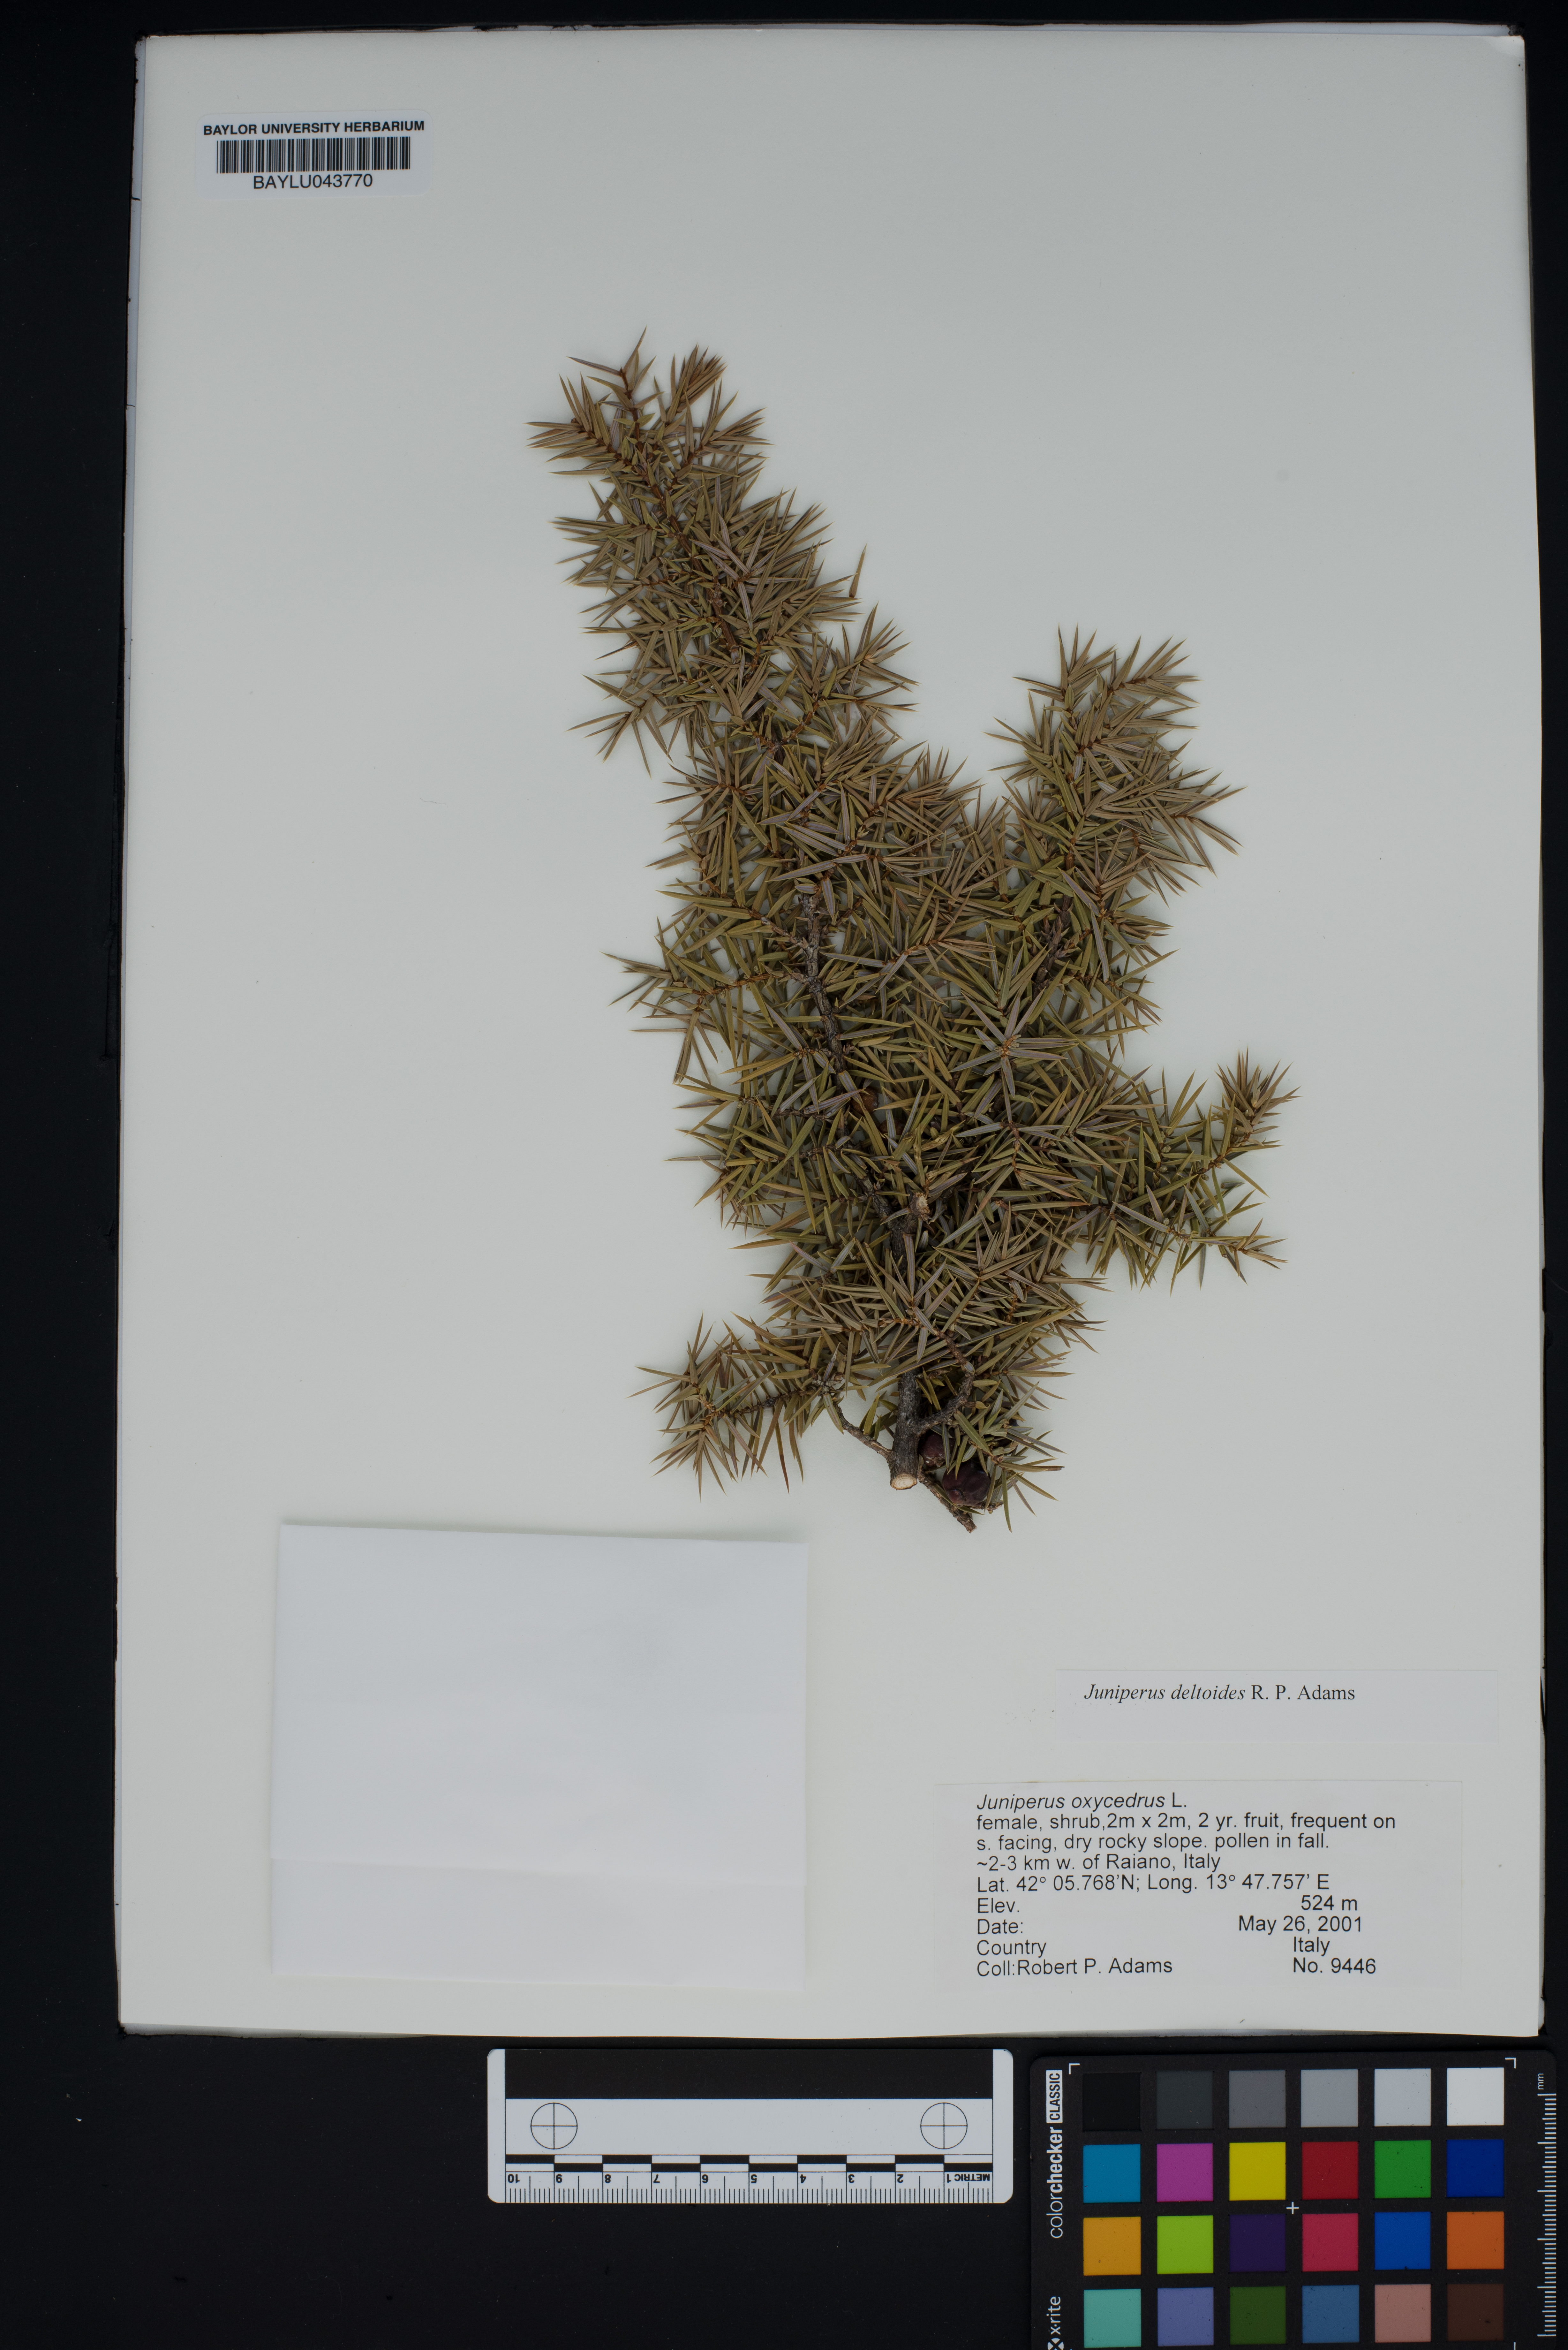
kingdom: Plantae
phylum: Tracheophyta
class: Pinopsida
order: Pinales
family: Cupressaceae
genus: Juniperus
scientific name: Juniperus oxycedrus
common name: Prickly juniper
